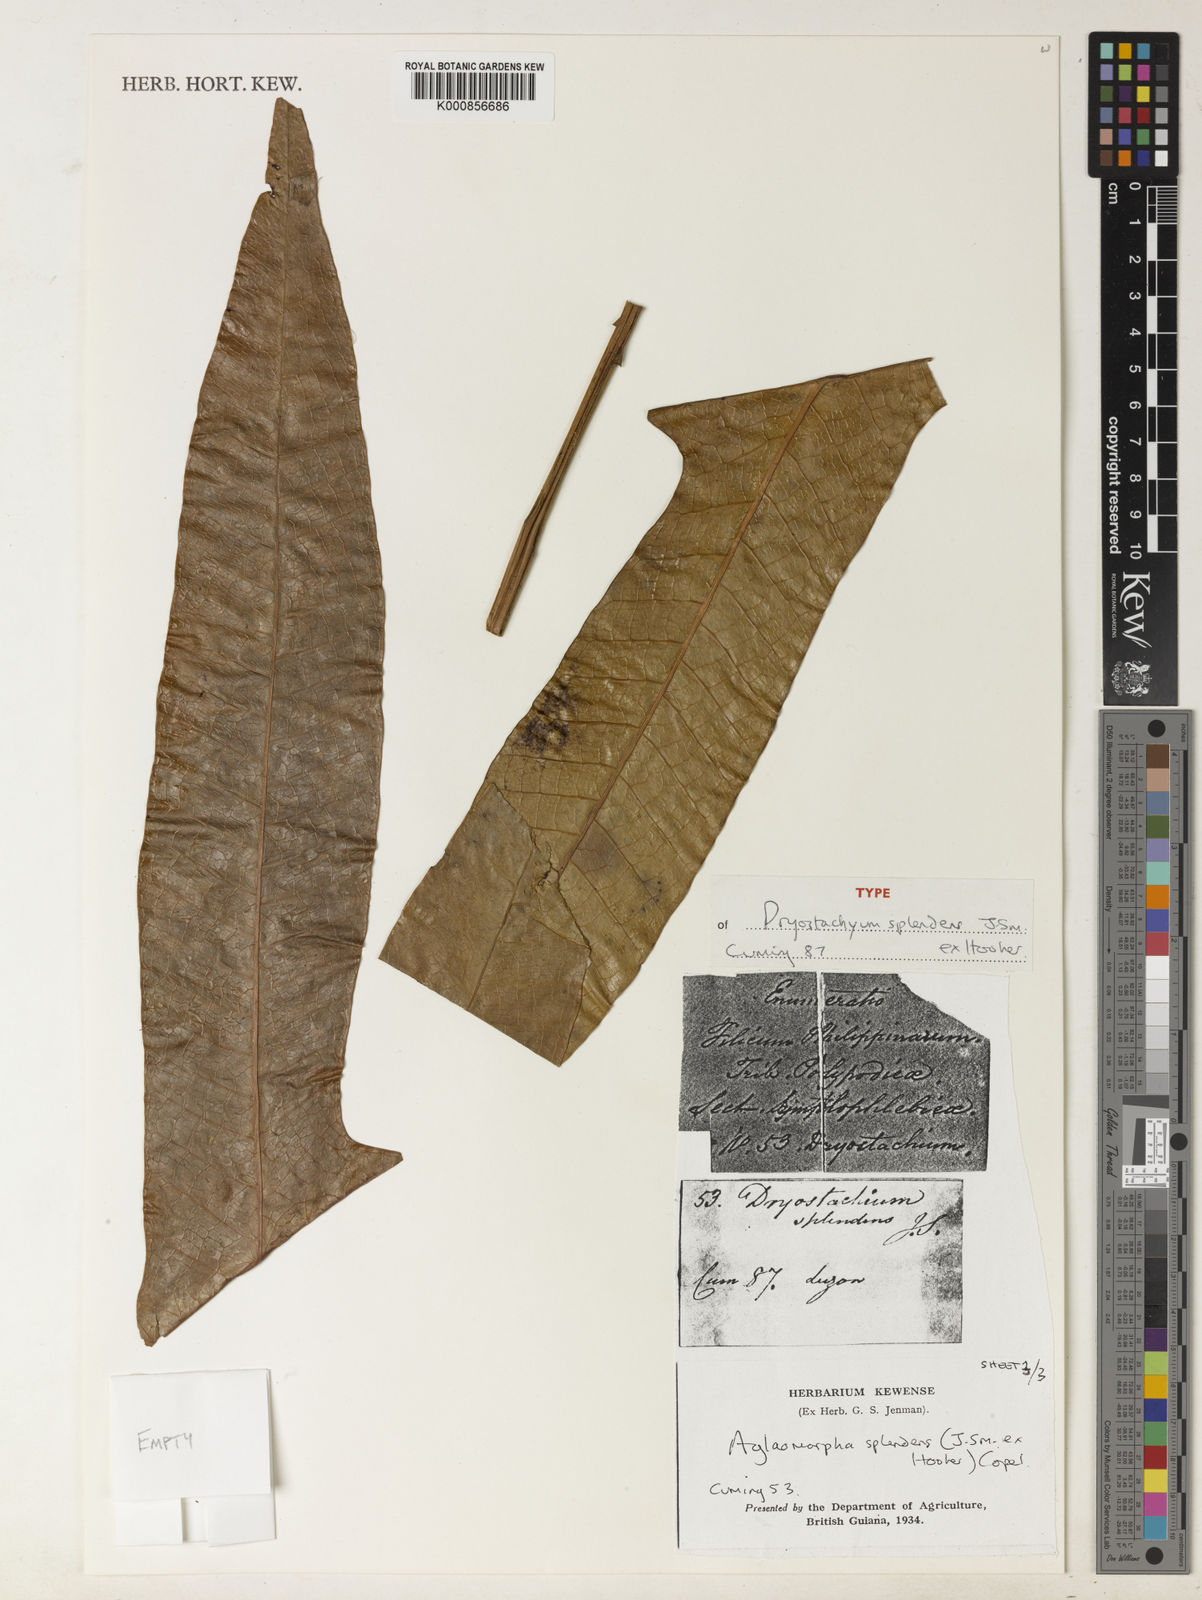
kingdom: Plantae
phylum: Tracheophyta
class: Polypodiopsida
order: Polypodiales
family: Polypodiaceae
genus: Drynaria
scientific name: Drynaria splendens
